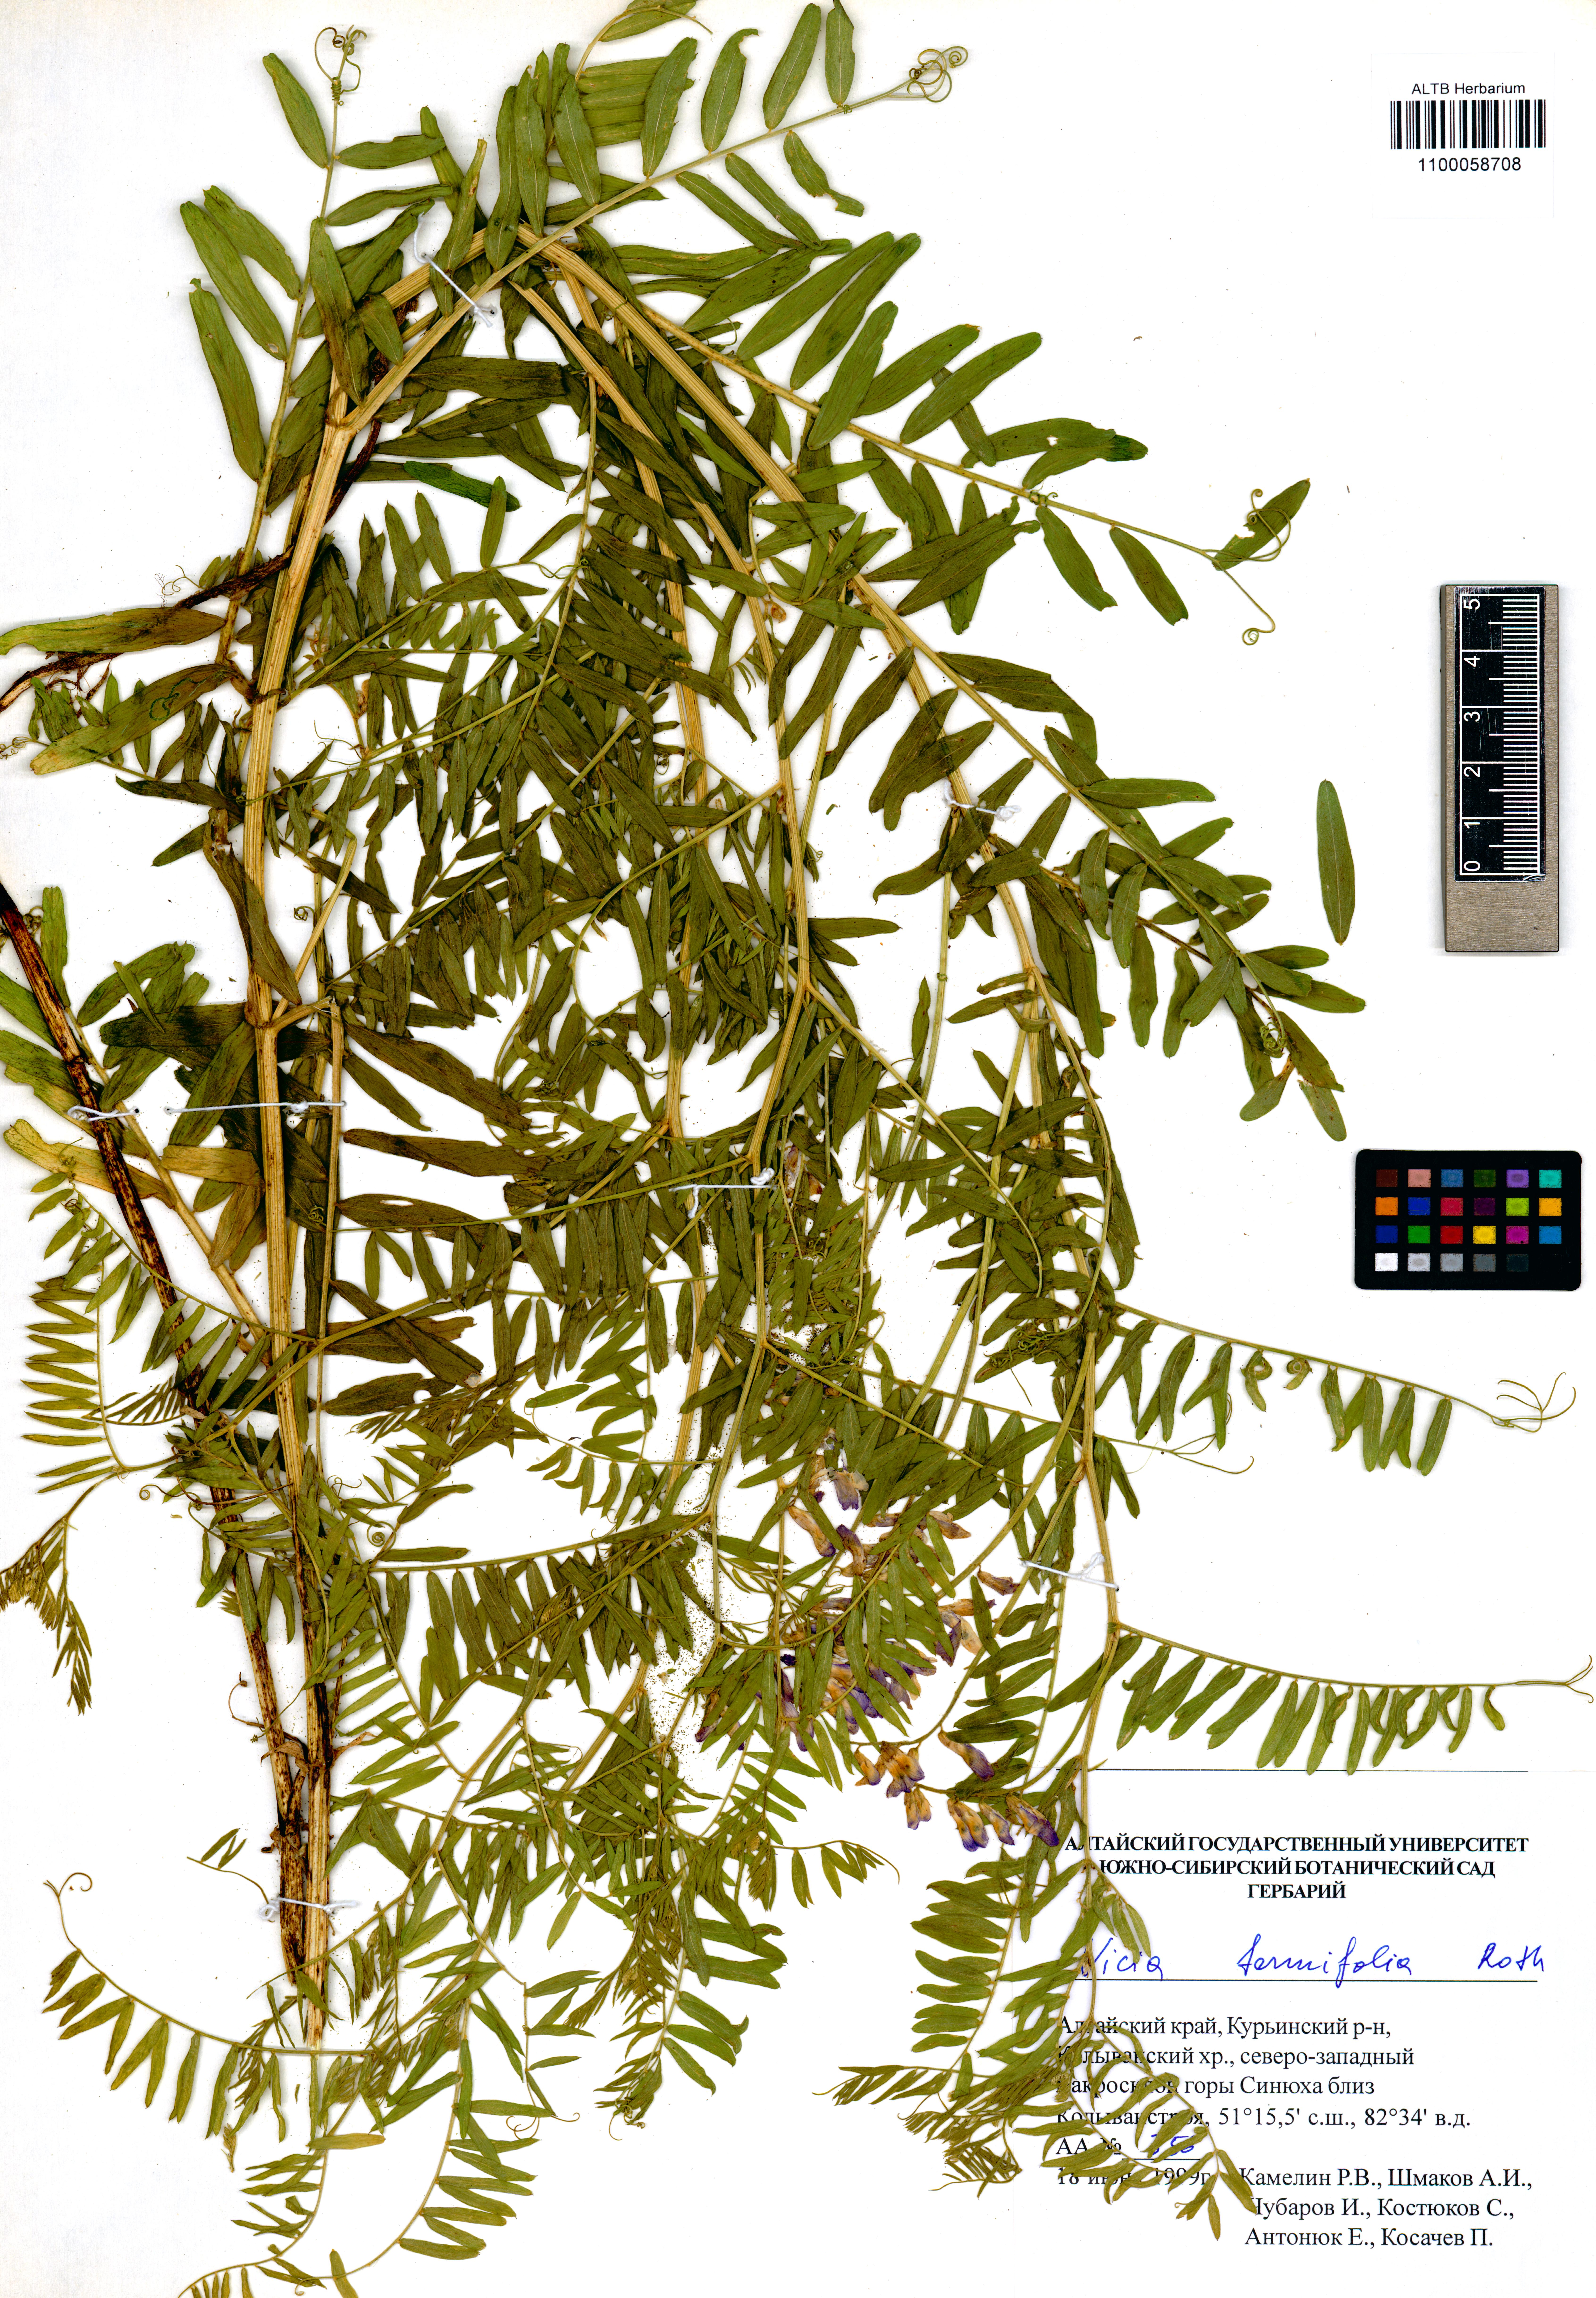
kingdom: Plantae
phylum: Tracheophyta
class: Magnoliopsida
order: Fabales
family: Fabaceae
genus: Vicia
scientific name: Vicia tenuifolia
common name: Fine-leaved vetch
